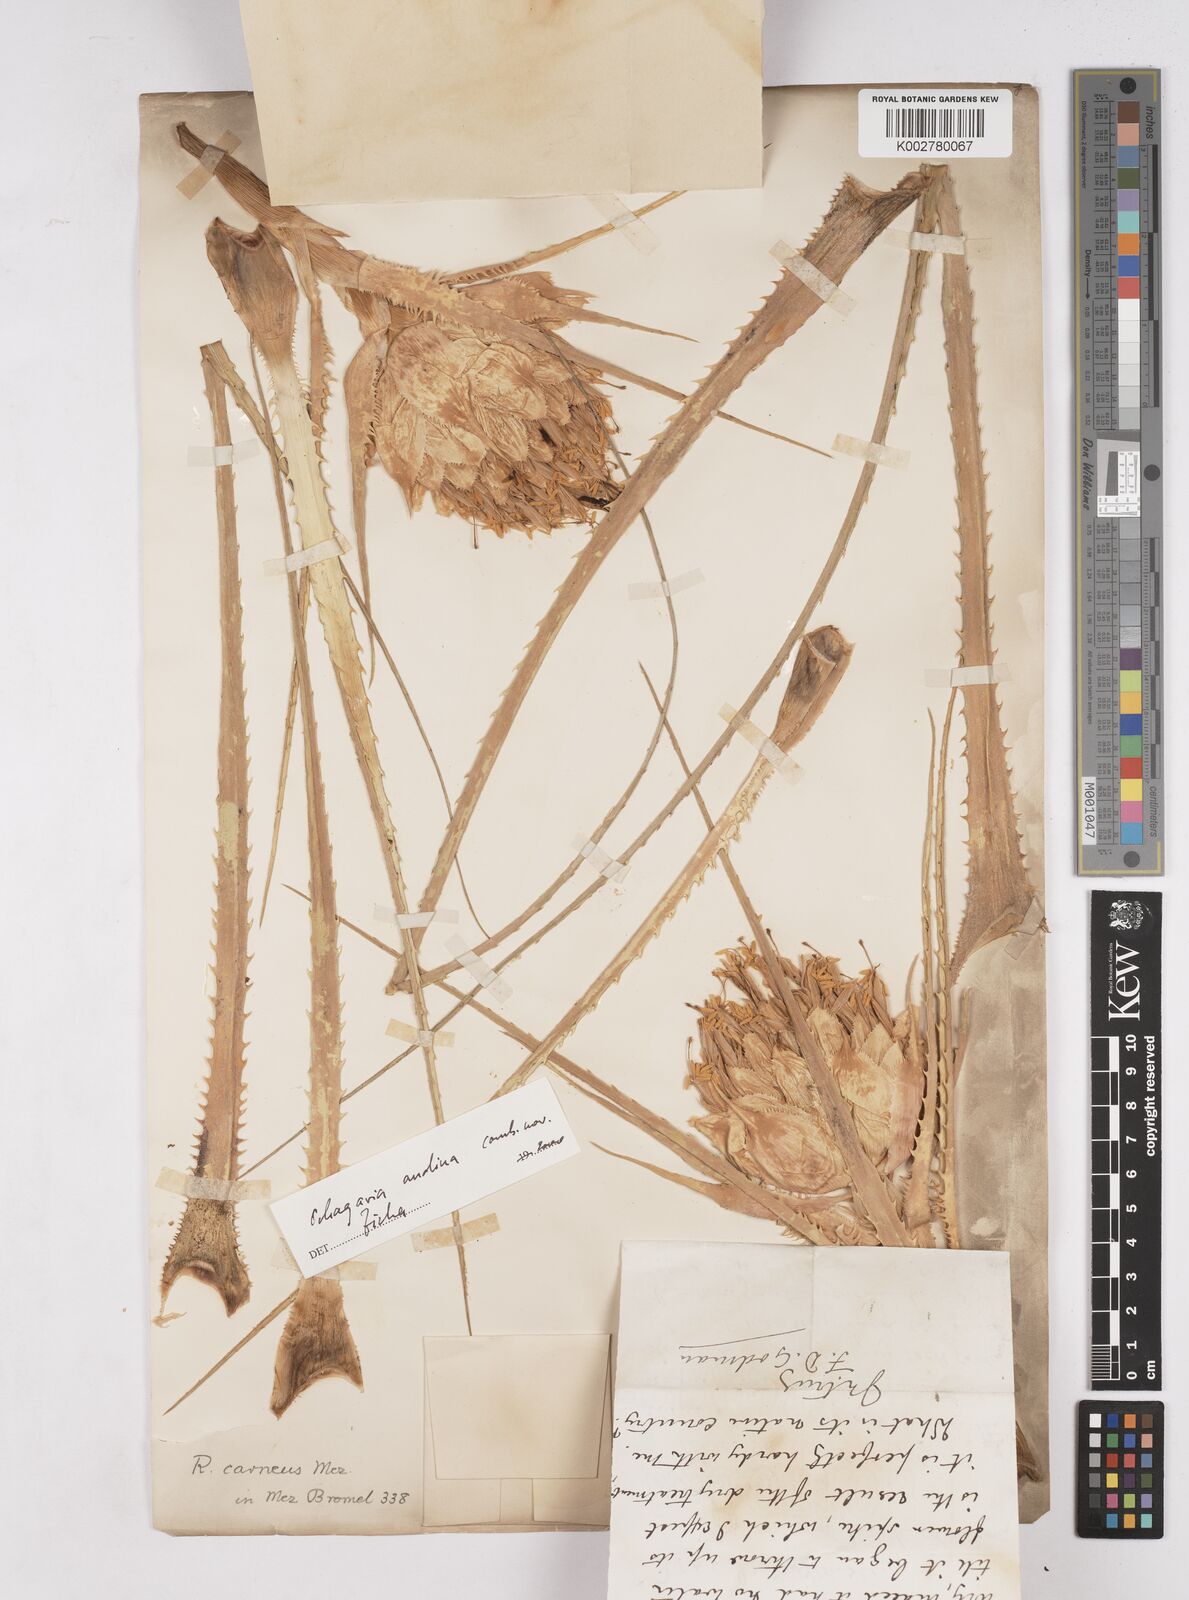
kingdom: Plantae
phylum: Tracheophyta
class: Liliopsida
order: Poales
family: Bromeliaceae
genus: Ochagavia
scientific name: Ochagavia carnea
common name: Tresco rhodostachys
